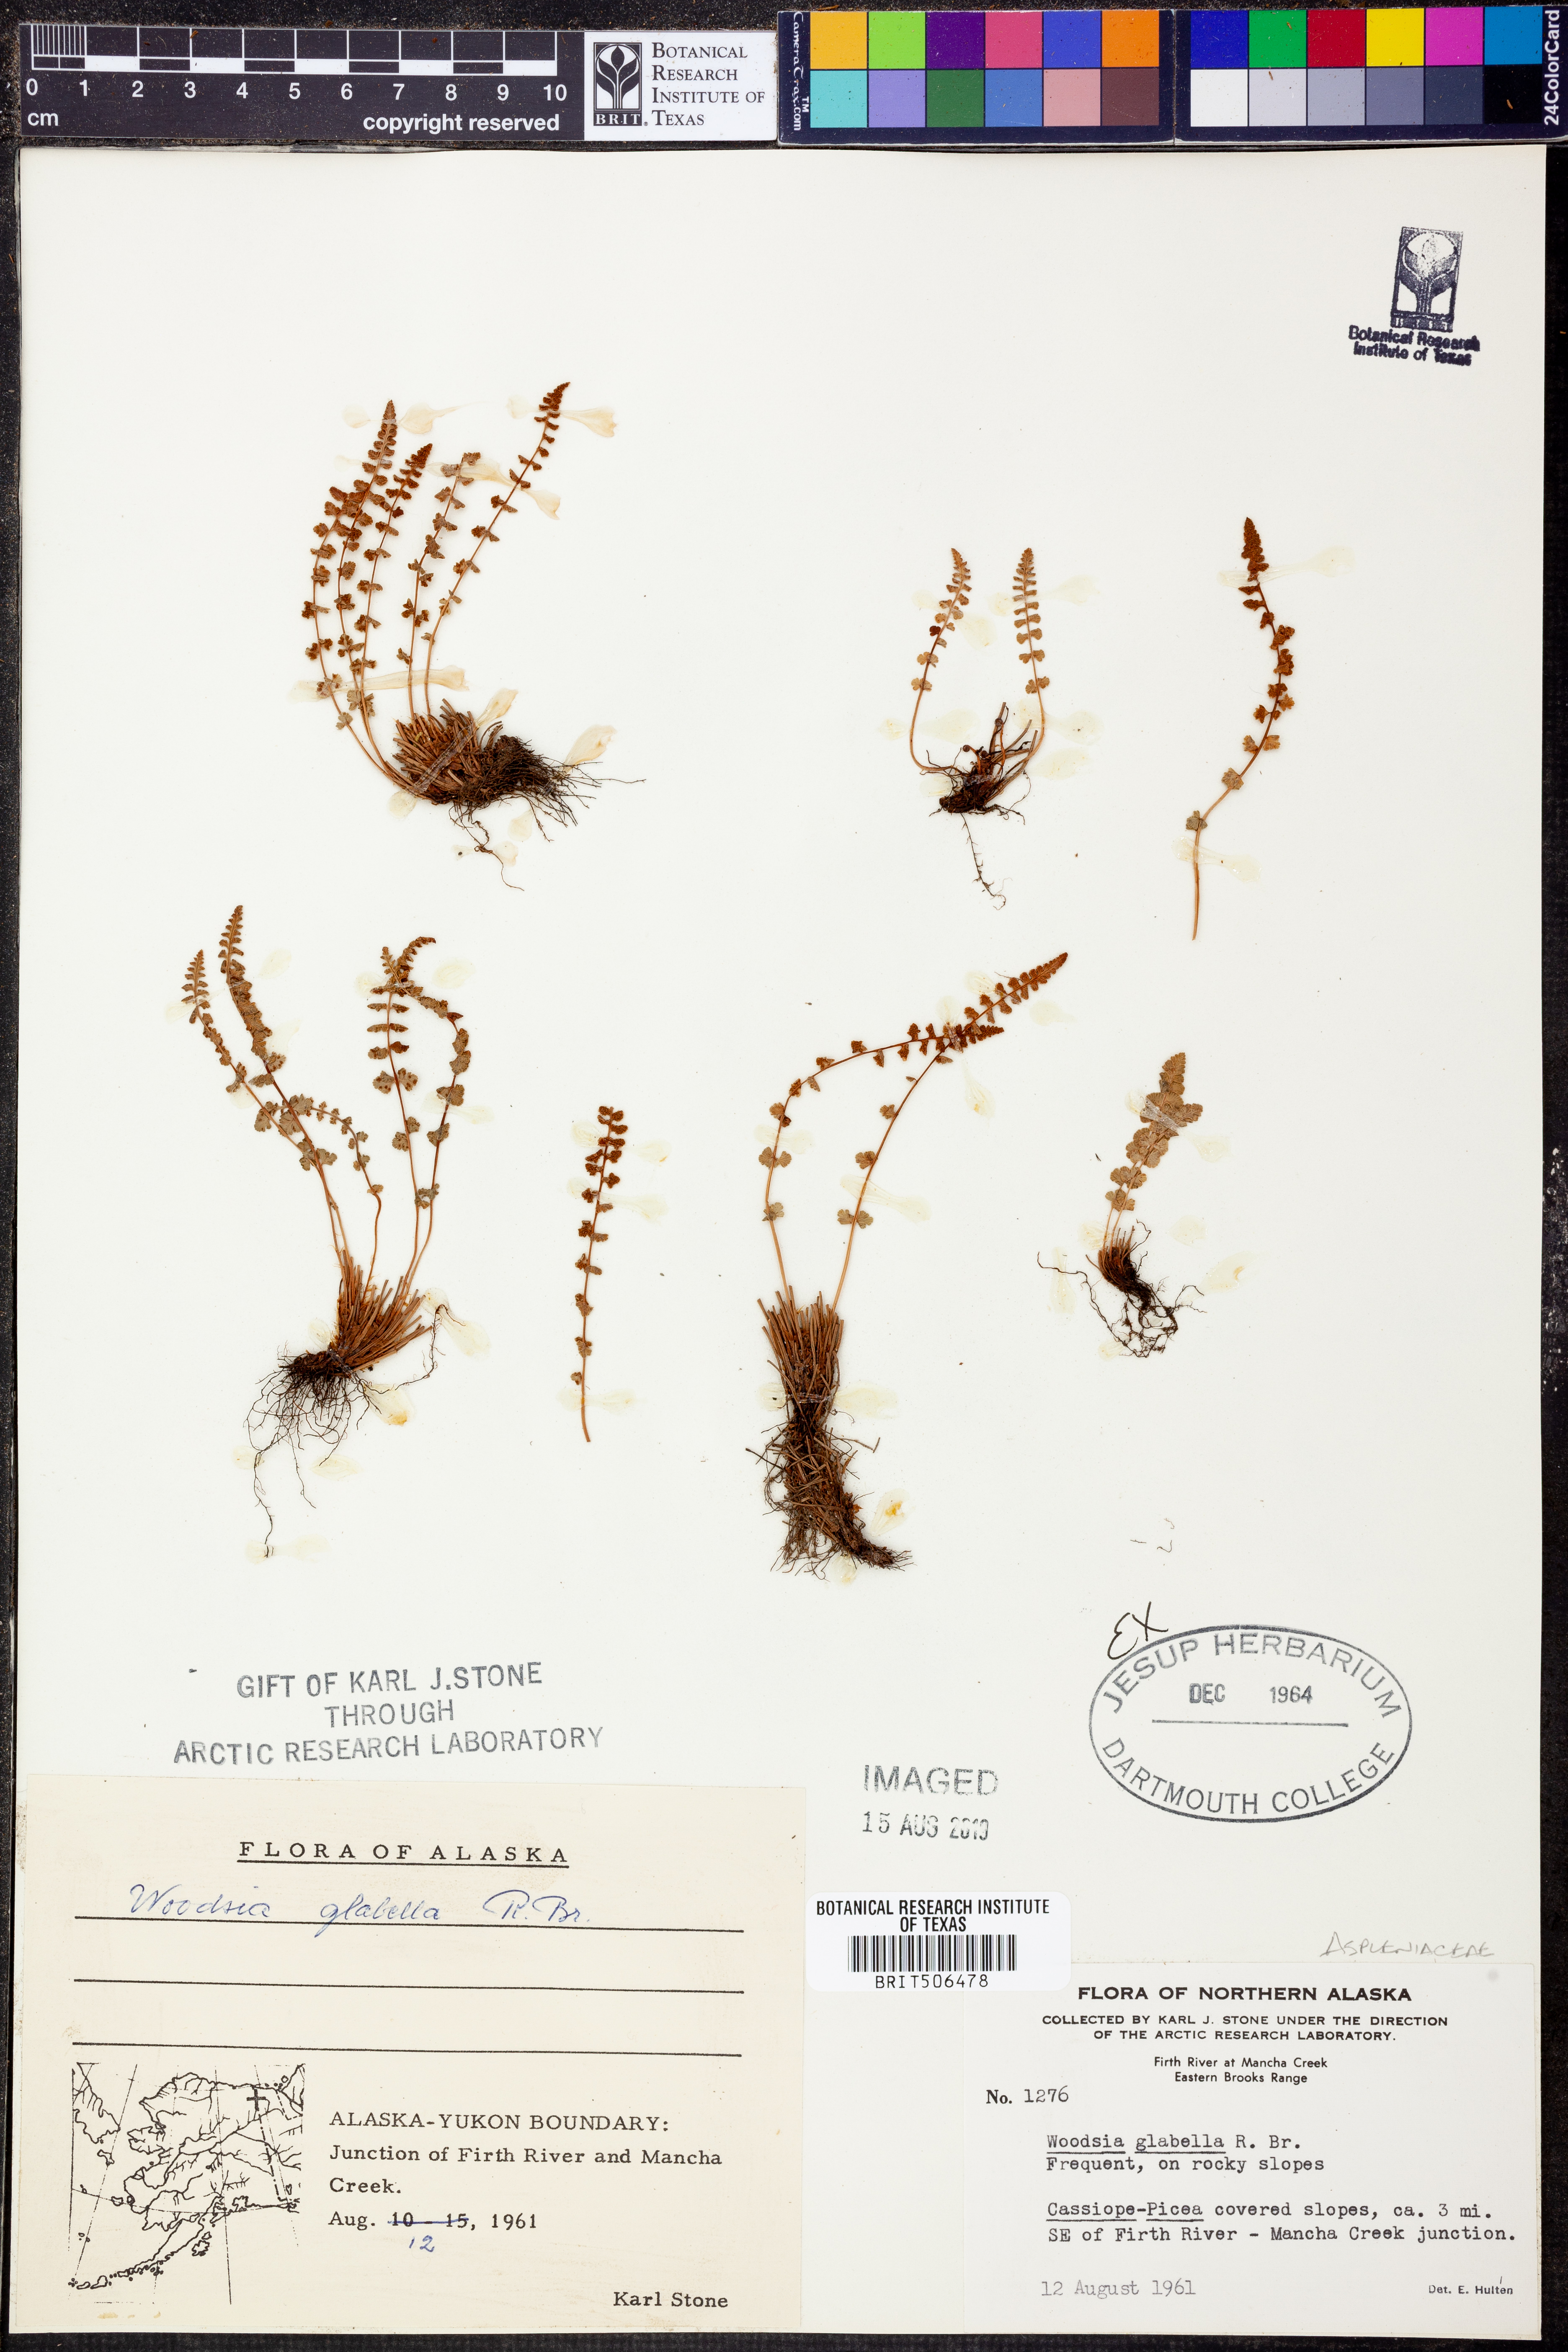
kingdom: Plantae
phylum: Tracheophyta
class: Polypodiopsida
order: Polypodiales
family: Woodsiaceae
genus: Woodsia
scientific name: Woodsia glabella
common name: Smooth woodsia
